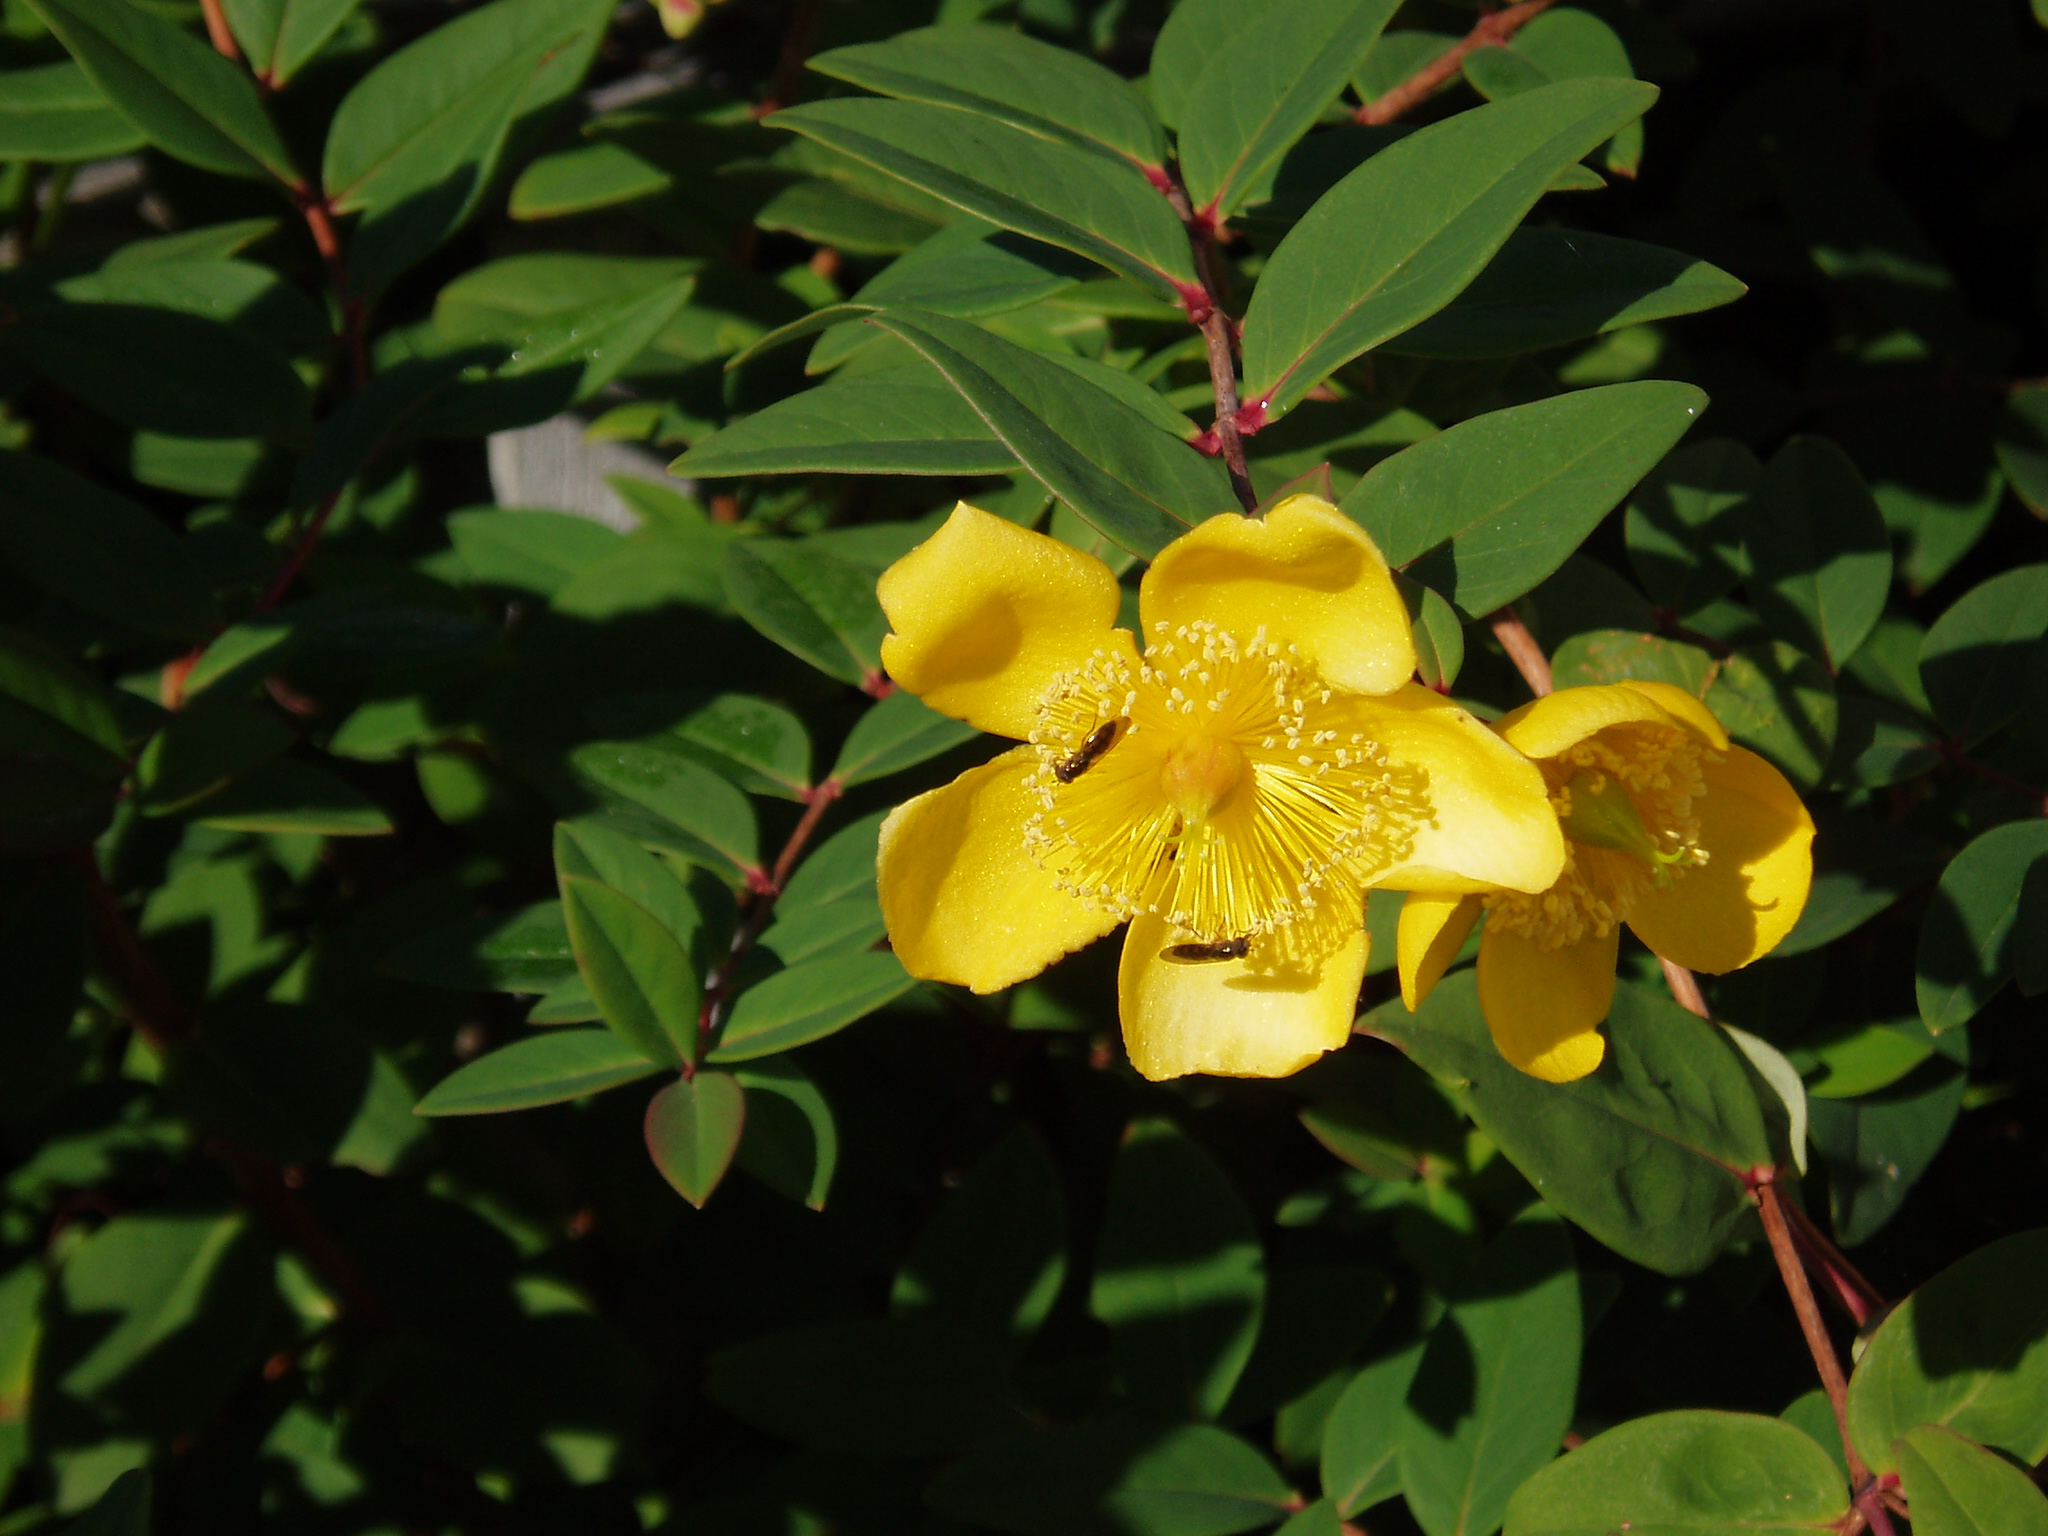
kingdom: Plantae
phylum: Tracheophyta
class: Magnoliopsida
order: Malpighiales
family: Hypericaceae
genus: Hypericum
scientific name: Hypericum henryi
